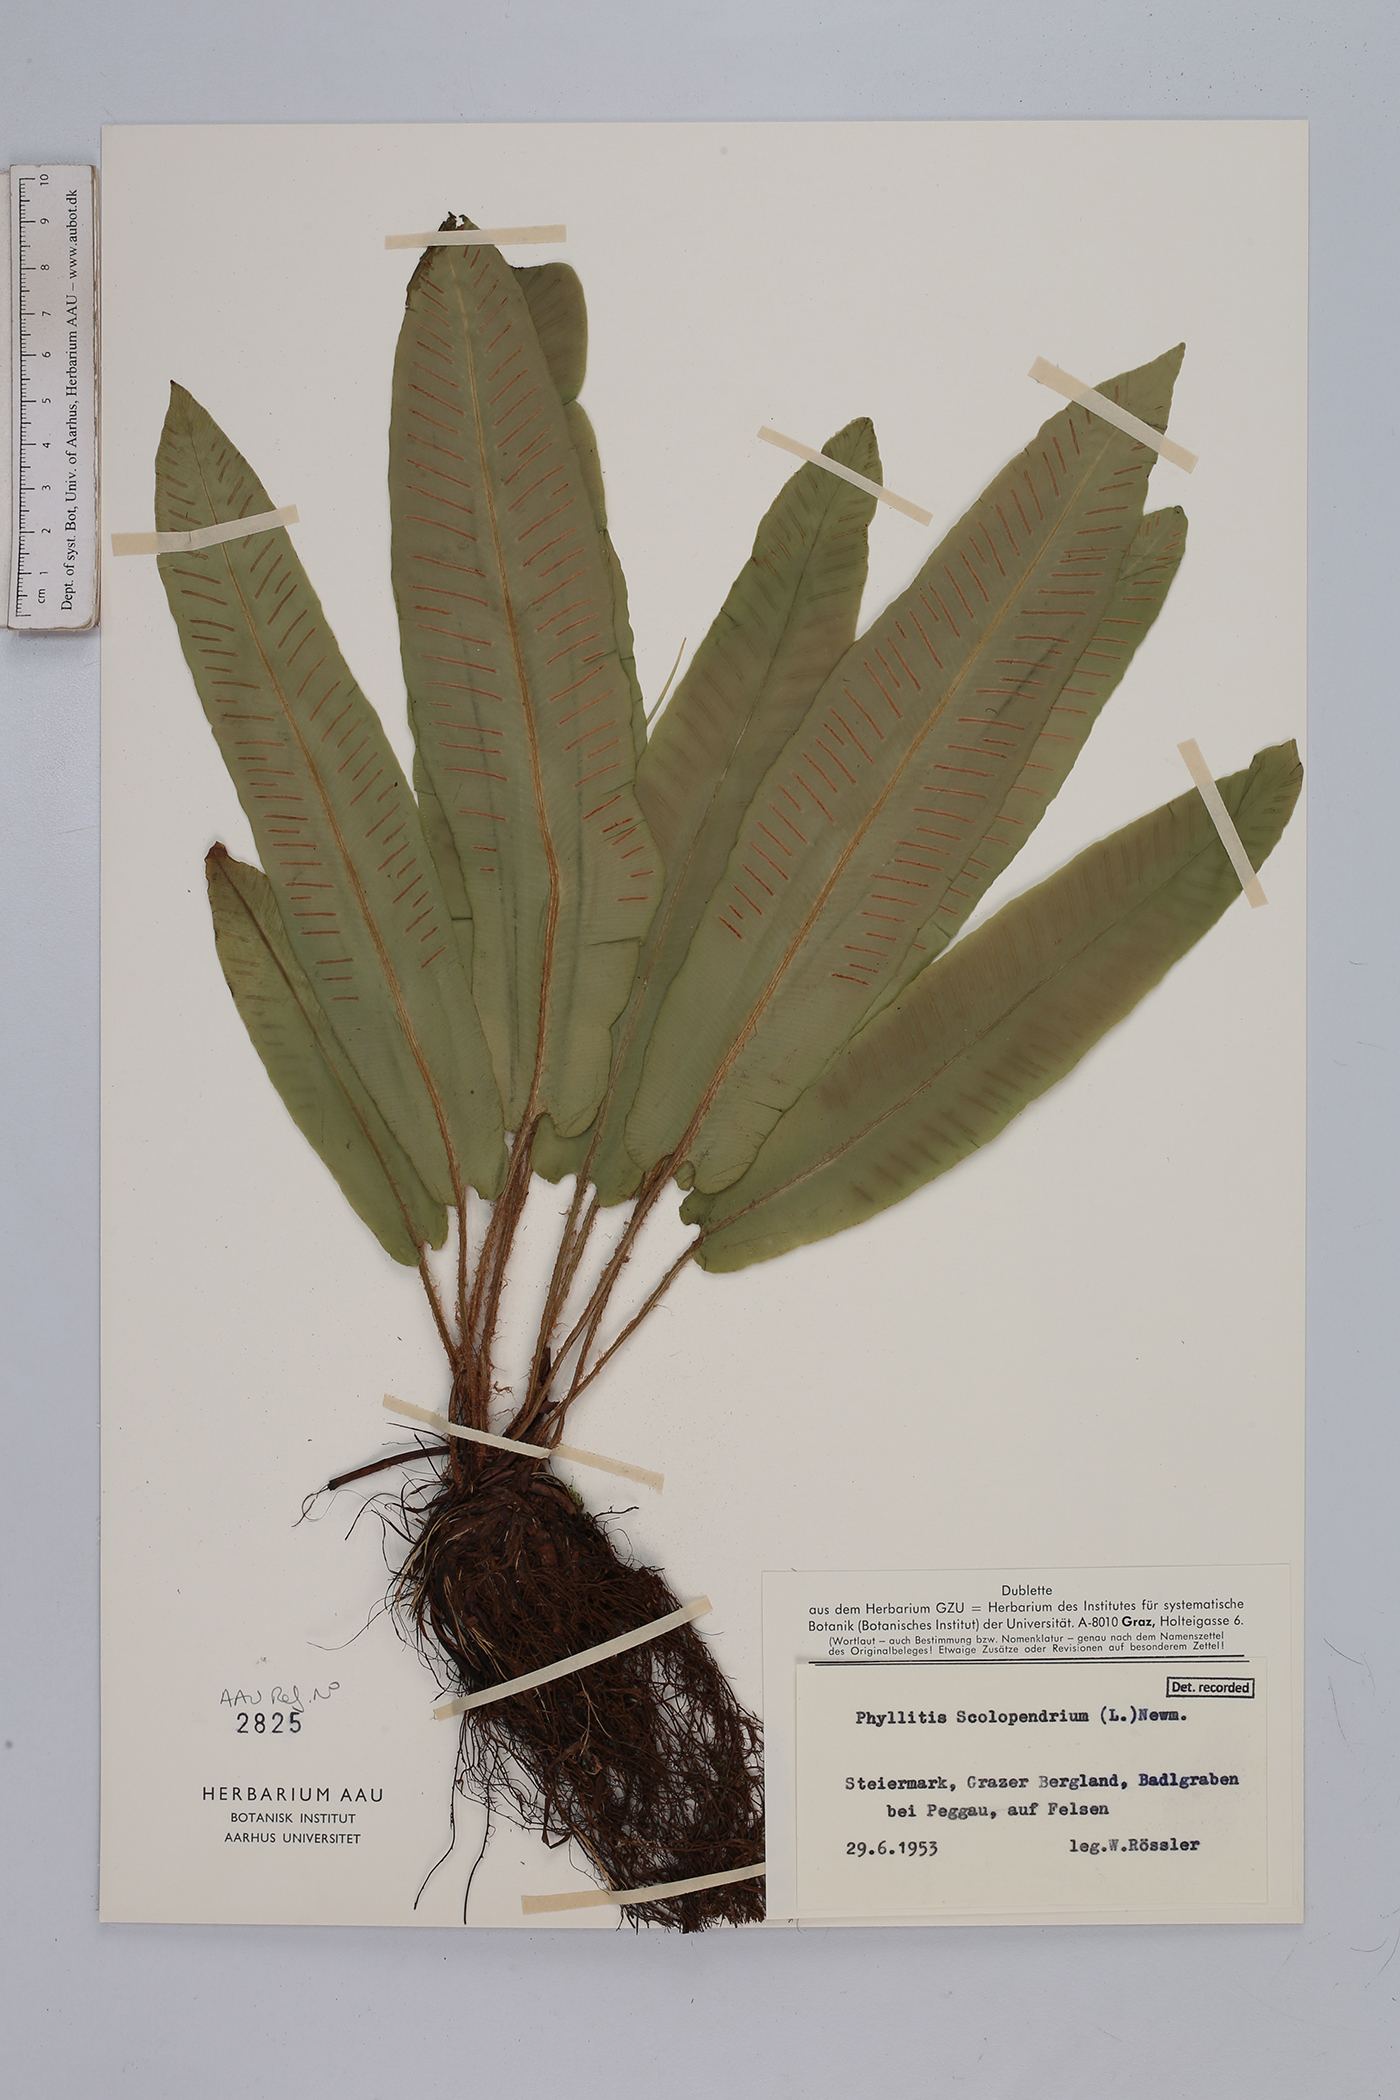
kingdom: Plantae
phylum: Tracheophyta
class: Polypodiopsida
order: Polypodiales
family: Aspleniaceae
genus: Asplenium
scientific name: Asplenium scolopendrium
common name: Hart's-tongue fern
